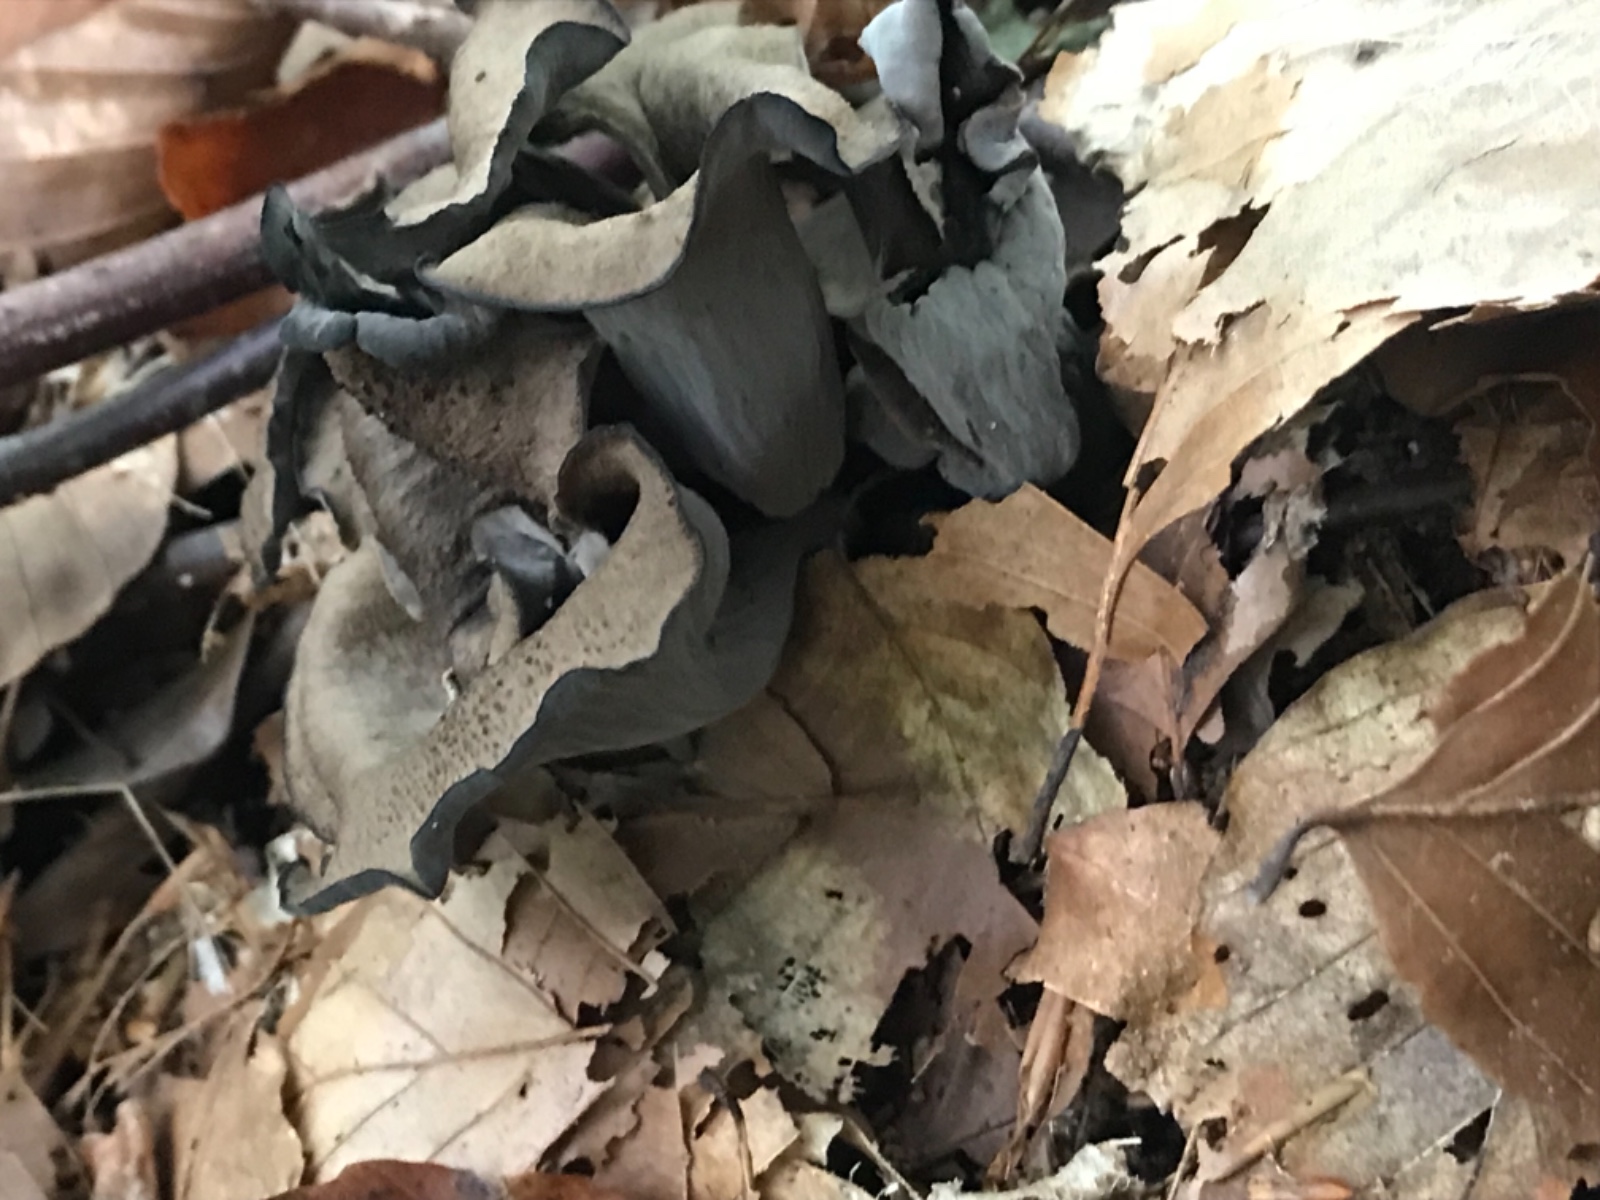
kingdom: Fungi
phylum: Basidiomycota
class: Agaricomycetes
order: Cantharellales
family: Hydnaceae
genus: Craterellus
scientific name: Craterellus cornucopioides
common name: trompetsvamp
